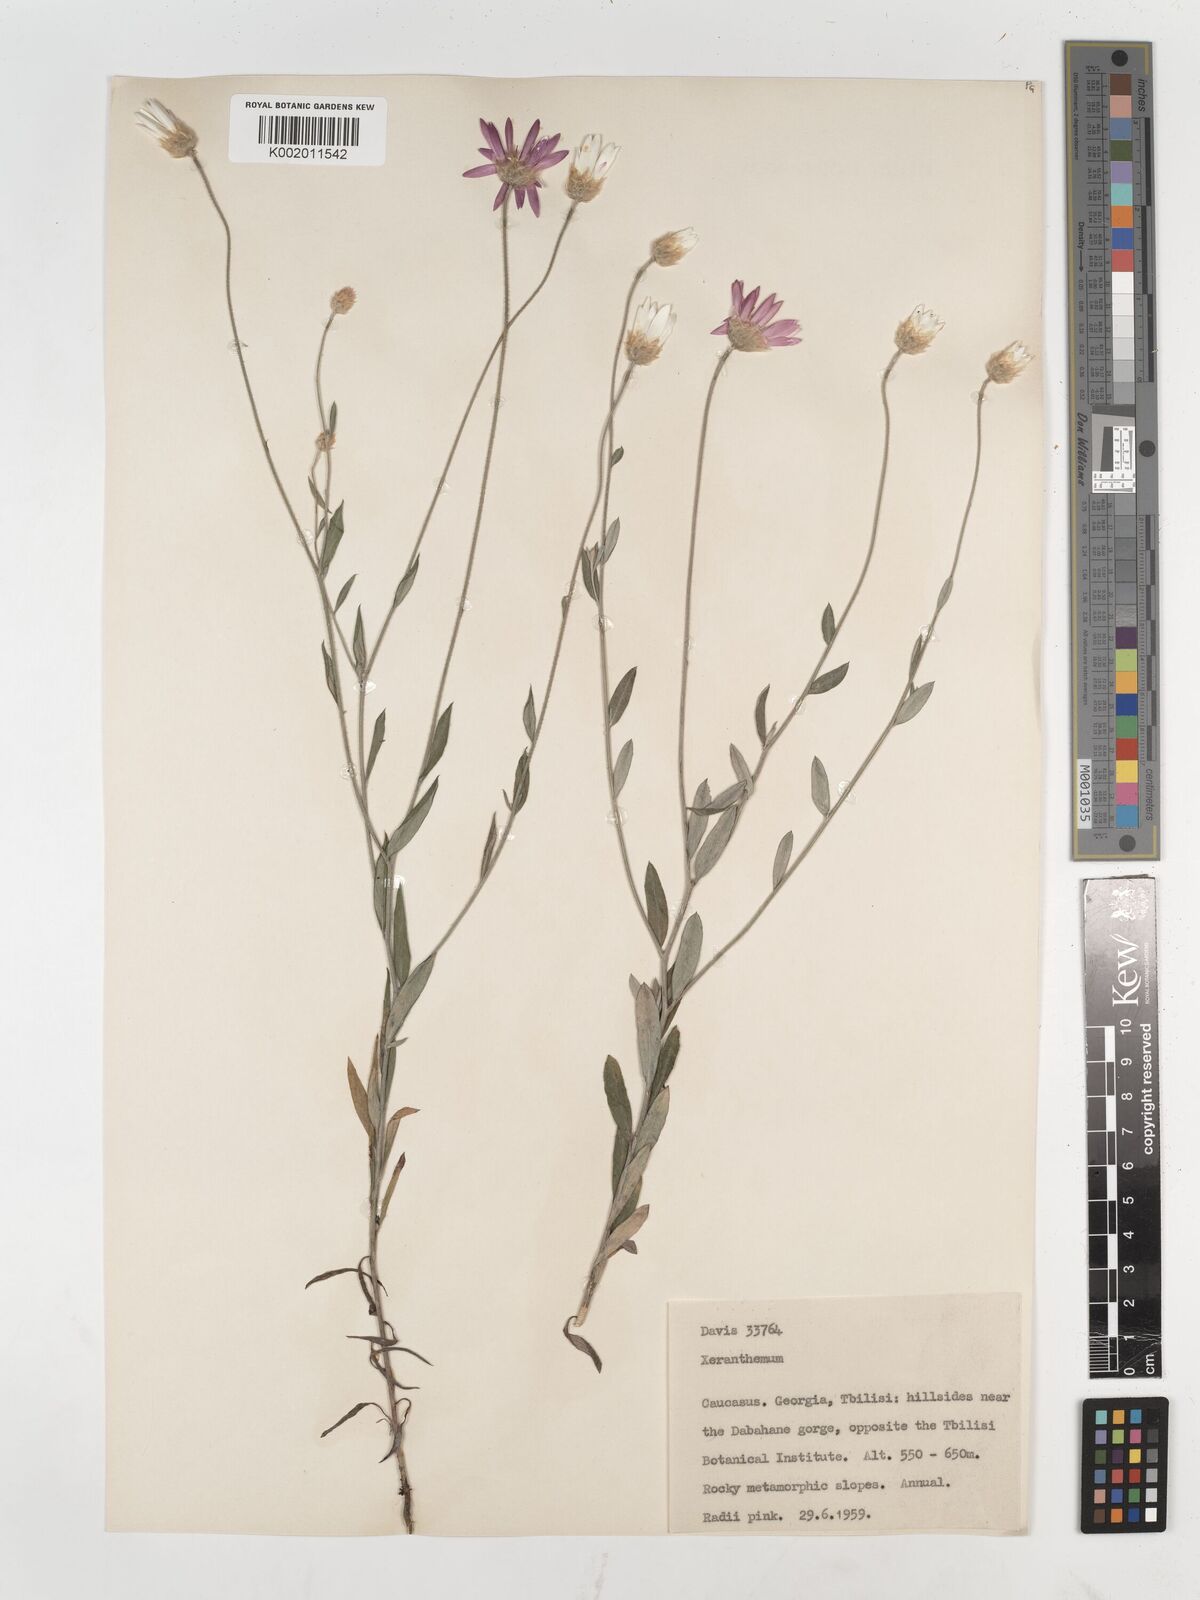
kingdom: Plantae
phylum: Tracheophyta
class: Magnoliopsida
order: Asterales
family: Asteraceae
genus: Xeranthemum
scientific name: Xeranthemum annuum
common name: Immortelle
